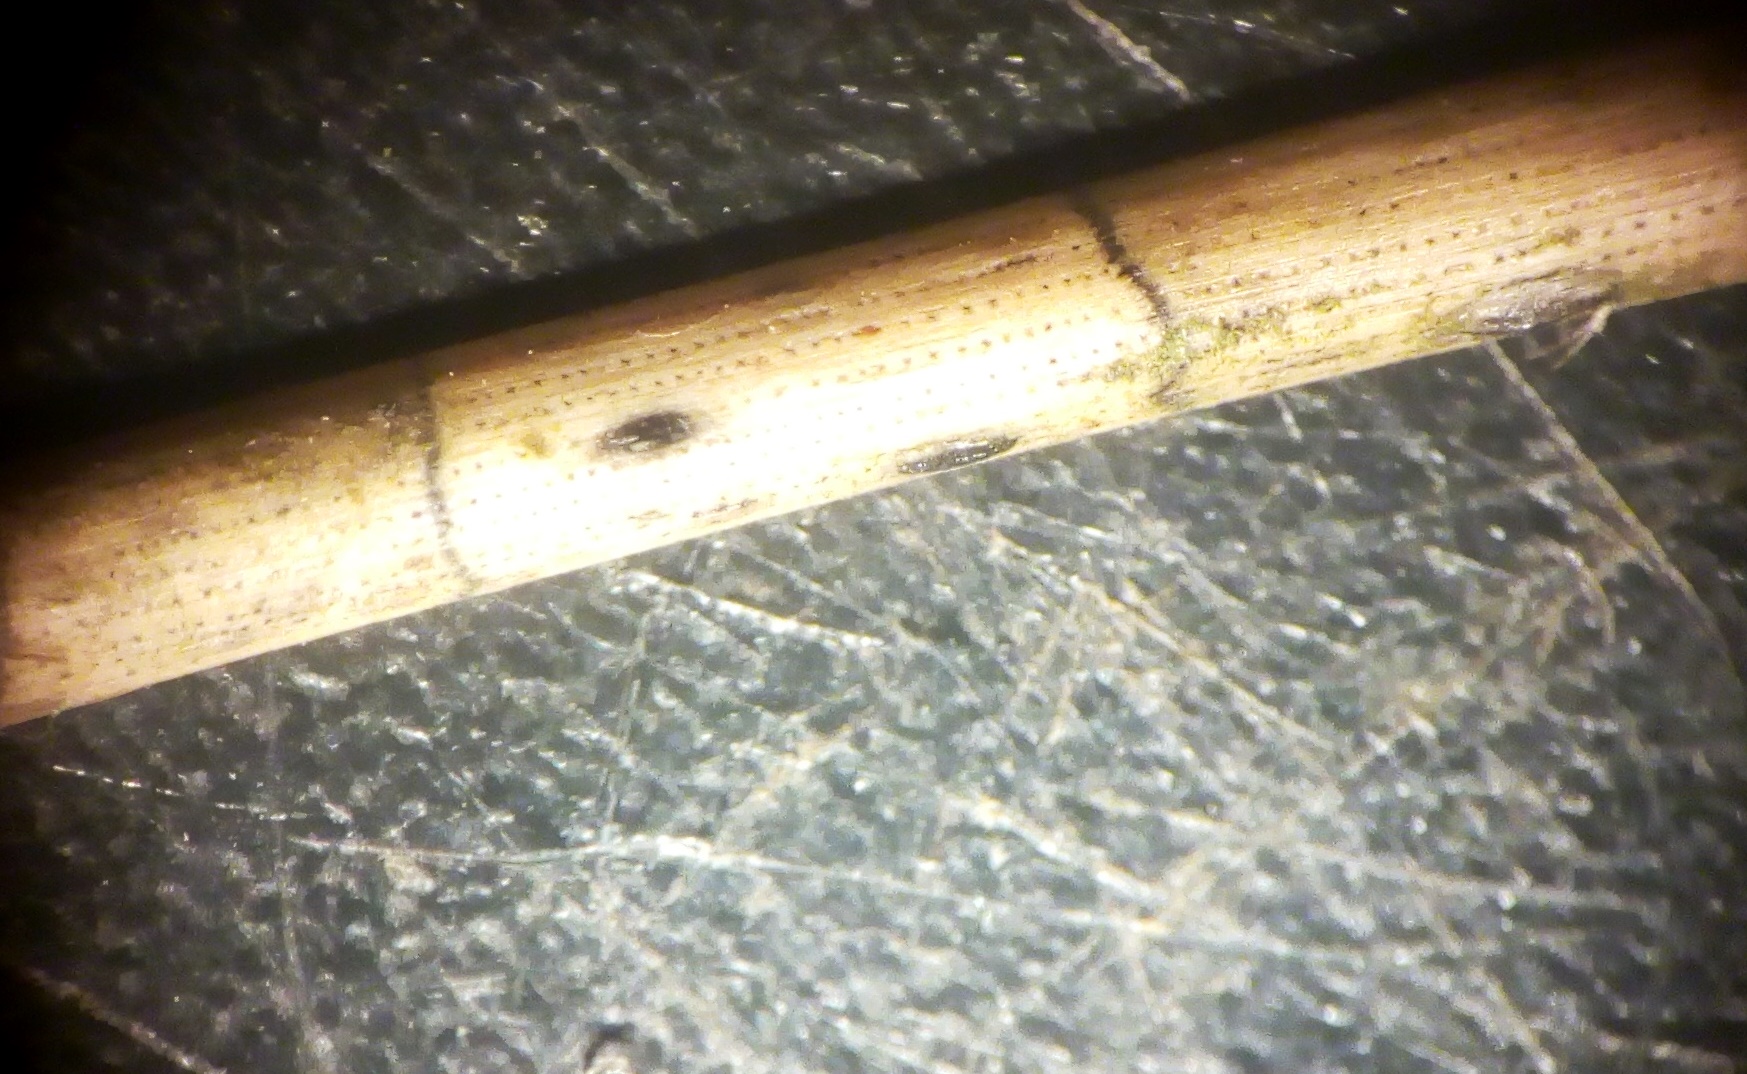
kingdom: Fungi
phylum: Ascomycota
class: Leotiomycetes
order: Rhytismatales
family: Rhytismataceae
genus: Lophodermium
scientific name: Lophodermium
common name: fureplet
